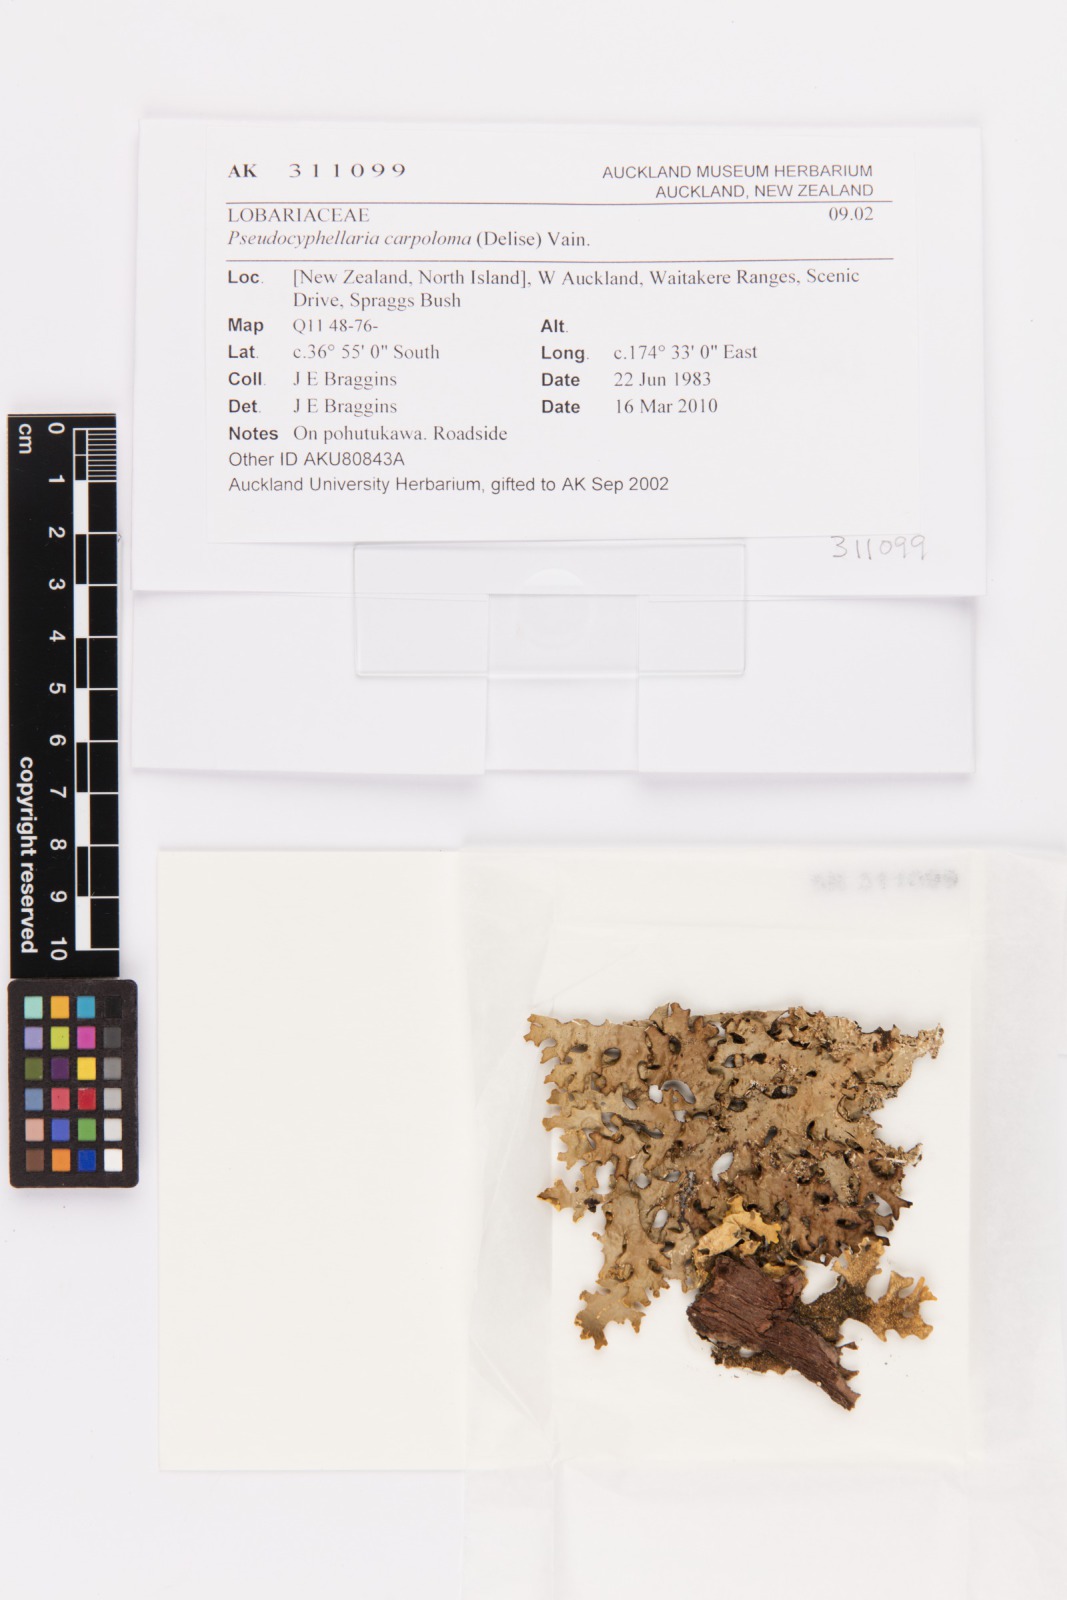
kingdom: Fungi
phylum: Ascomycota
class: Lecanoromycetes
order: Peltigerales
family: Lobariaceae
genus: Pseudocyphellaria
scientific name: Pseudocyphellaria carpoloma
